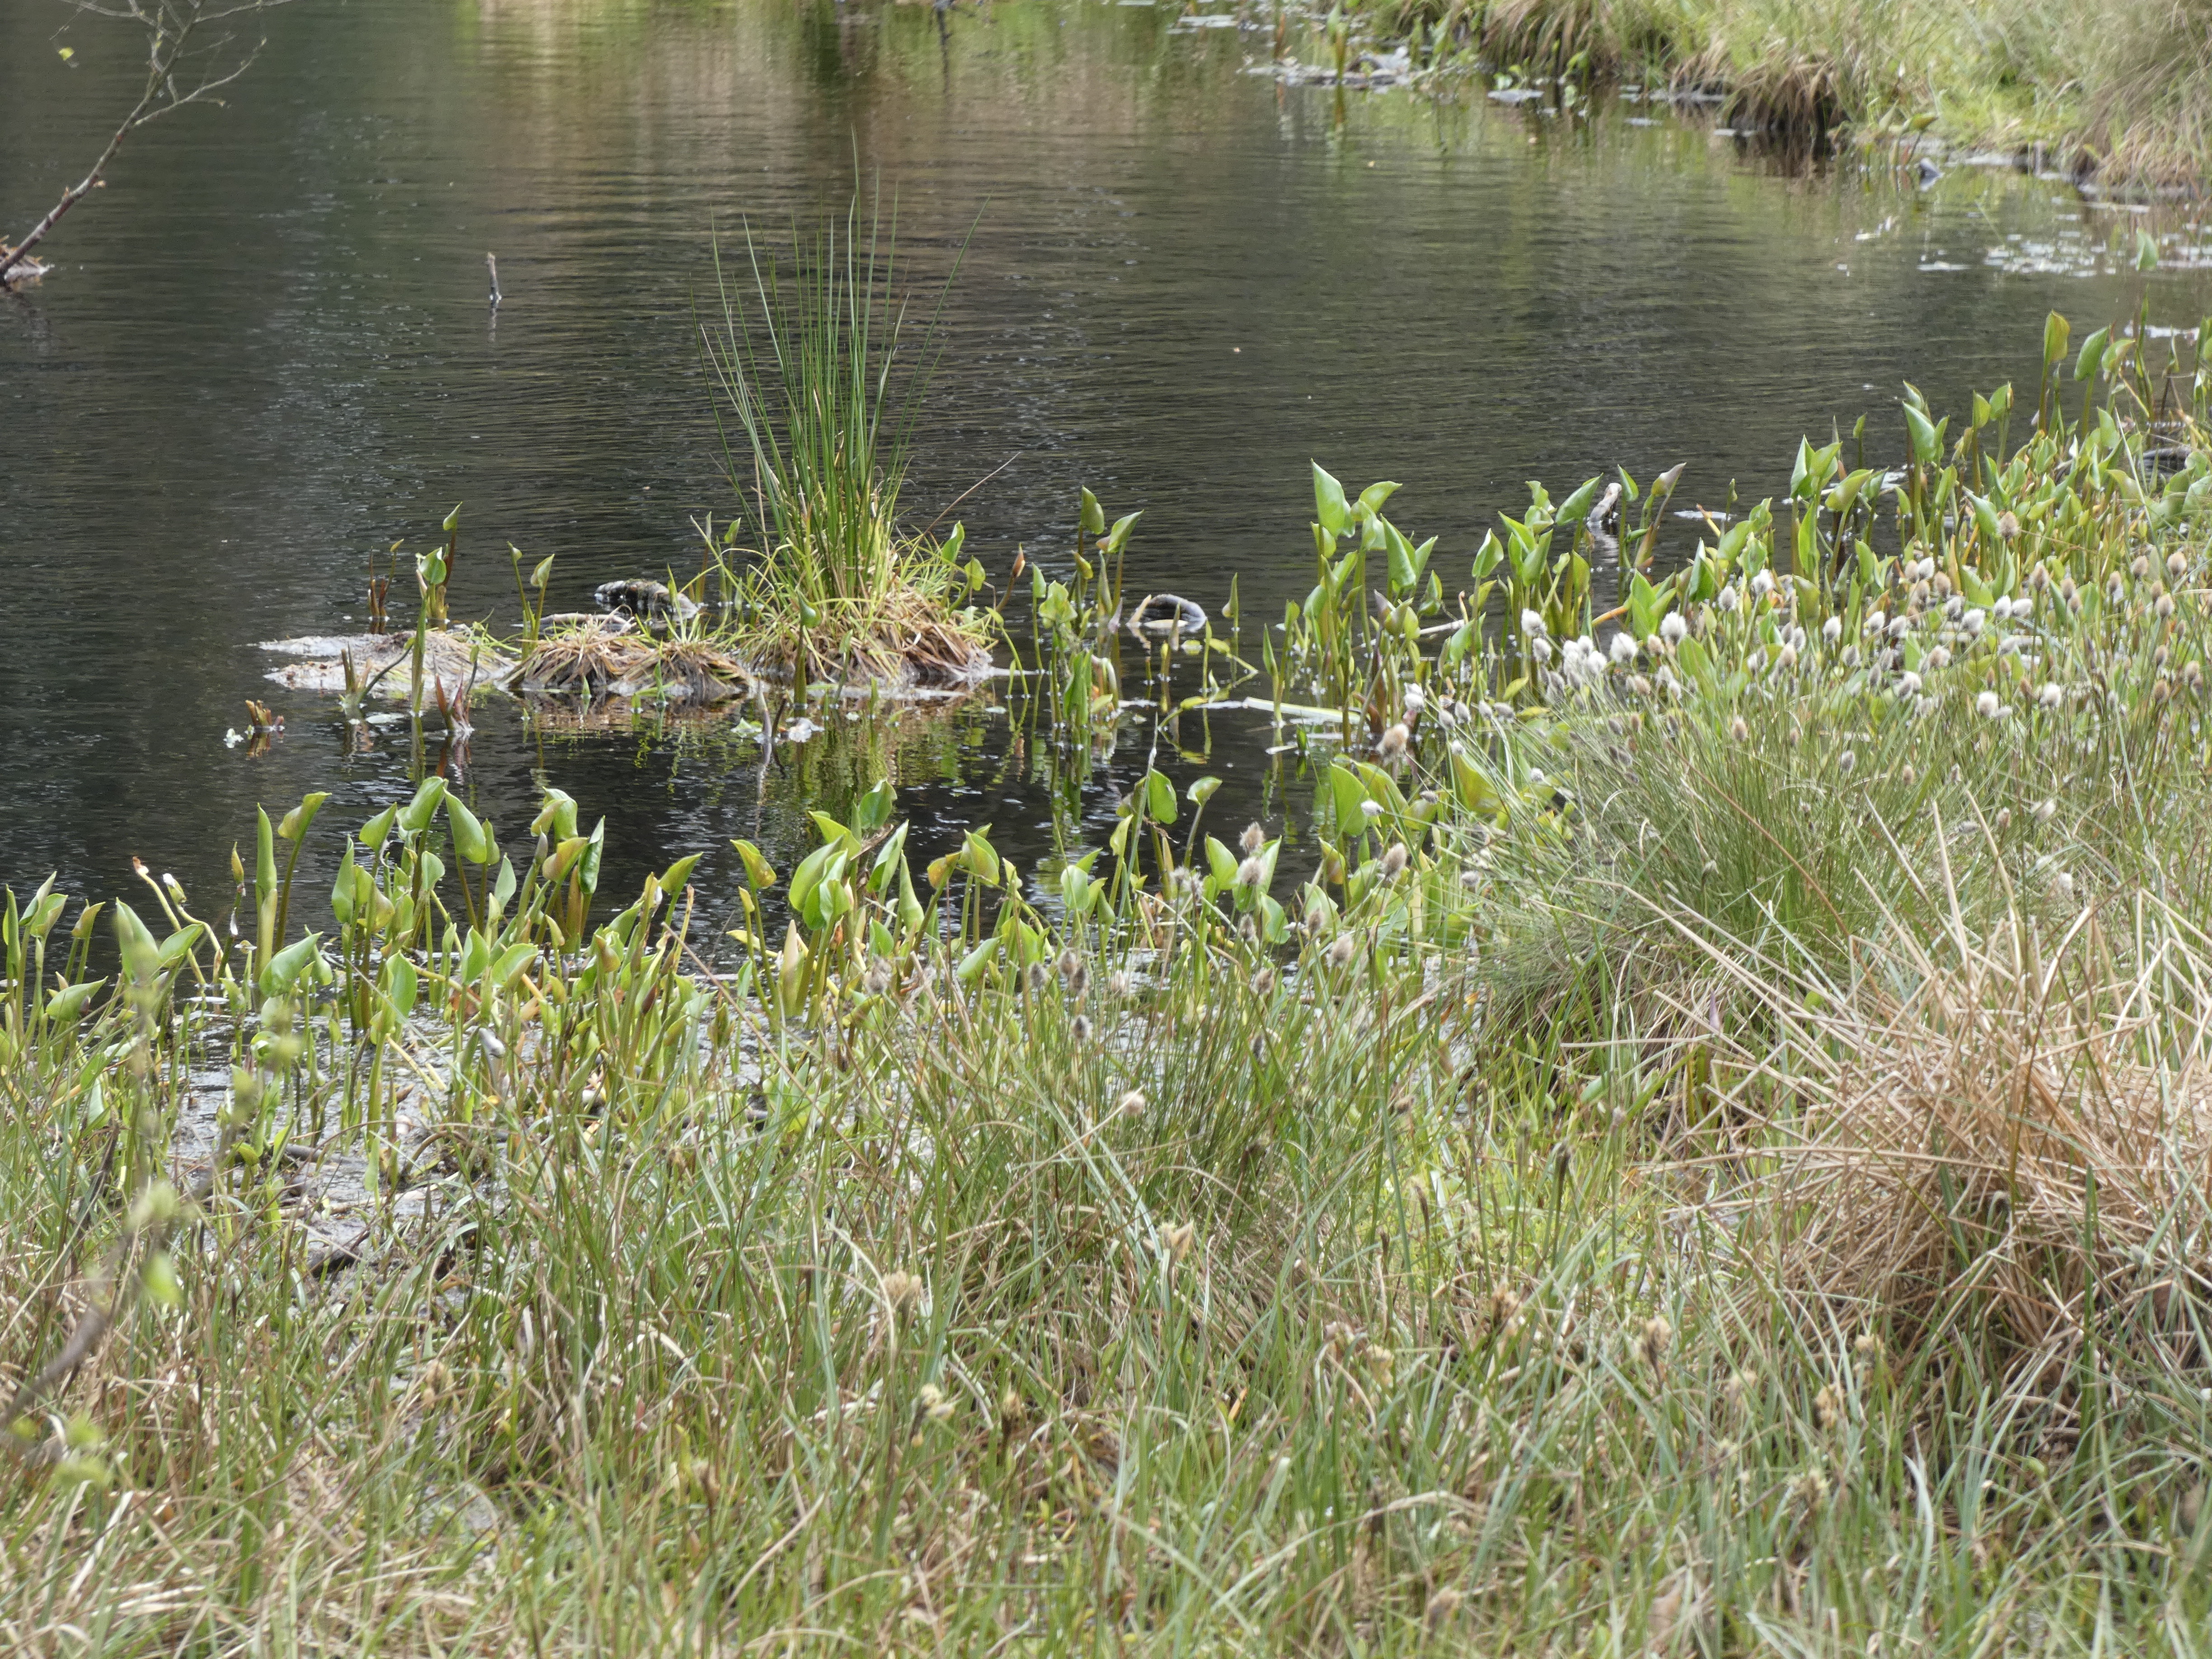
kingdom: Plantae
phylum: Tracheophyta
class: Liliopsida
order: Alismatales
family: Araceae
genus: Calla
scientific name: Calla palustris
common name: Kærmysse
